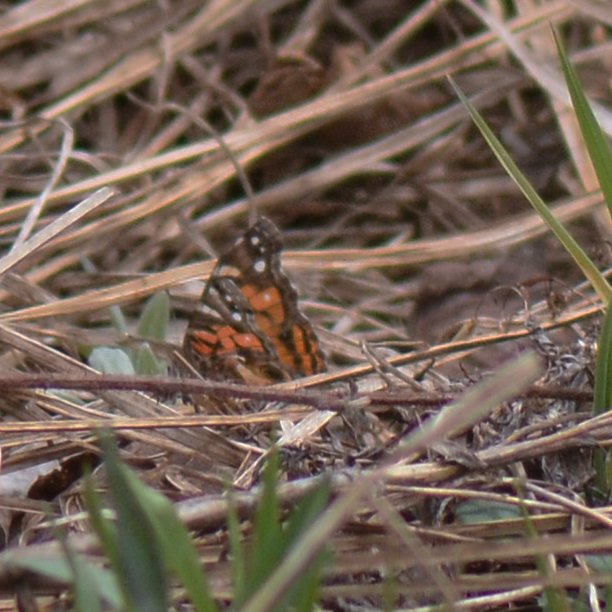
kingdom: Animalia
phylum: Arthropoda
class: Insecta
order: Lepidoptera
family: Nymphalidae
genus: Vanessa
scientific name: Vanessa virginiensis
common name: American Lady
